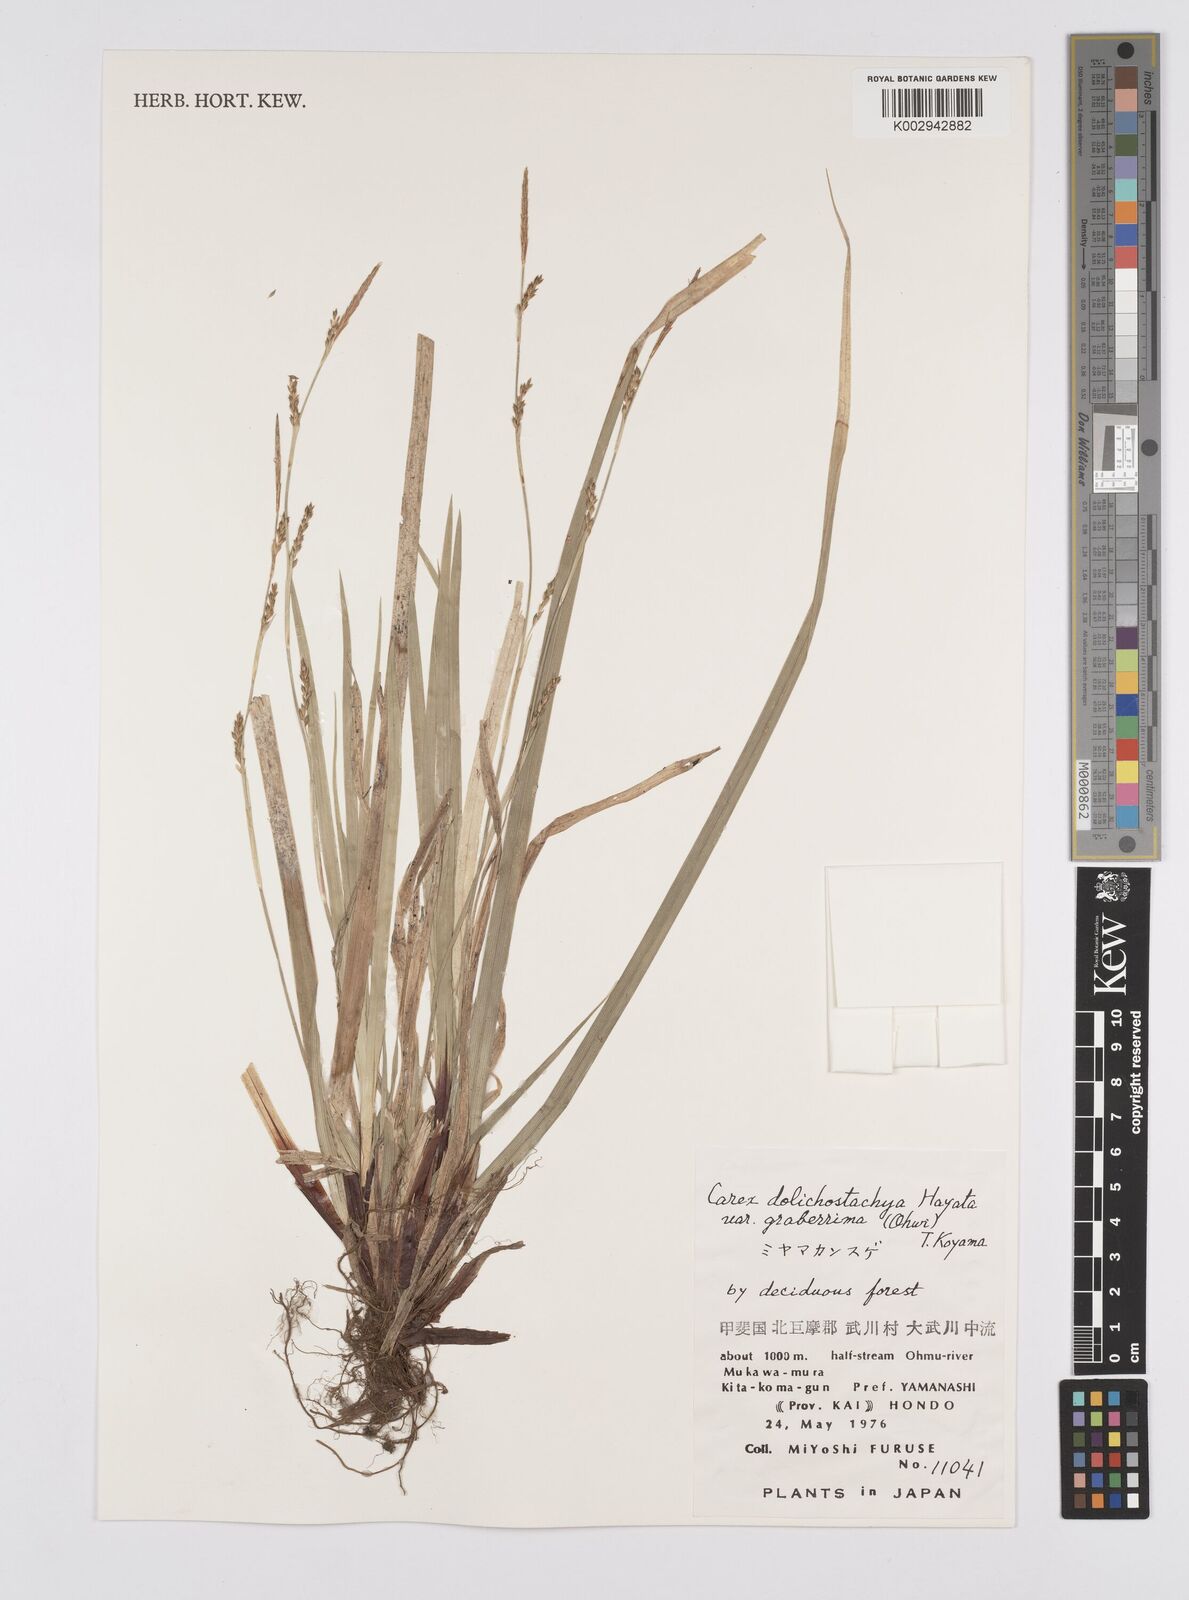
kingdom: Plantae
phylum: Tracheophyta
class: Liliopsida
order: Poales
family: Cyperaceae
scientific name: Cyperaceae
